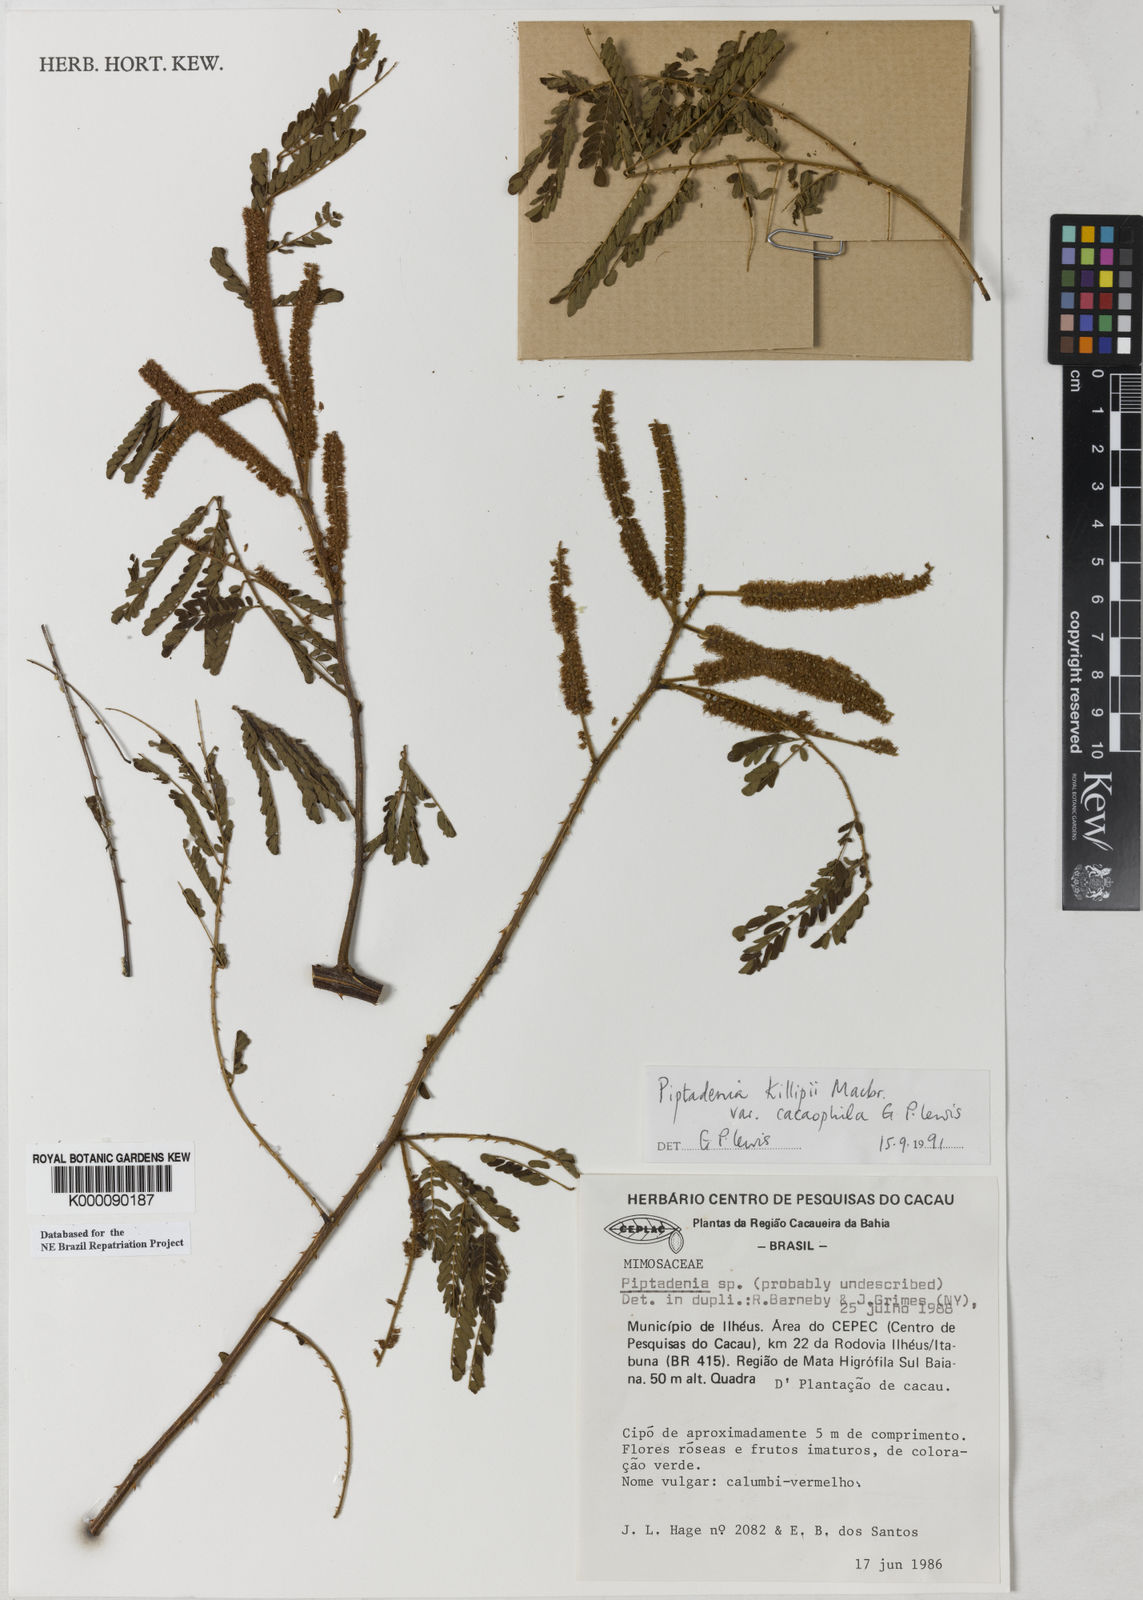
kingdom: Plantae
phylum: Tracheophyta
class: Magnoliopsida
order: Fabales
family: Fabaceae
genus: Piptadenia
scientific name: Piptadenia killipii
